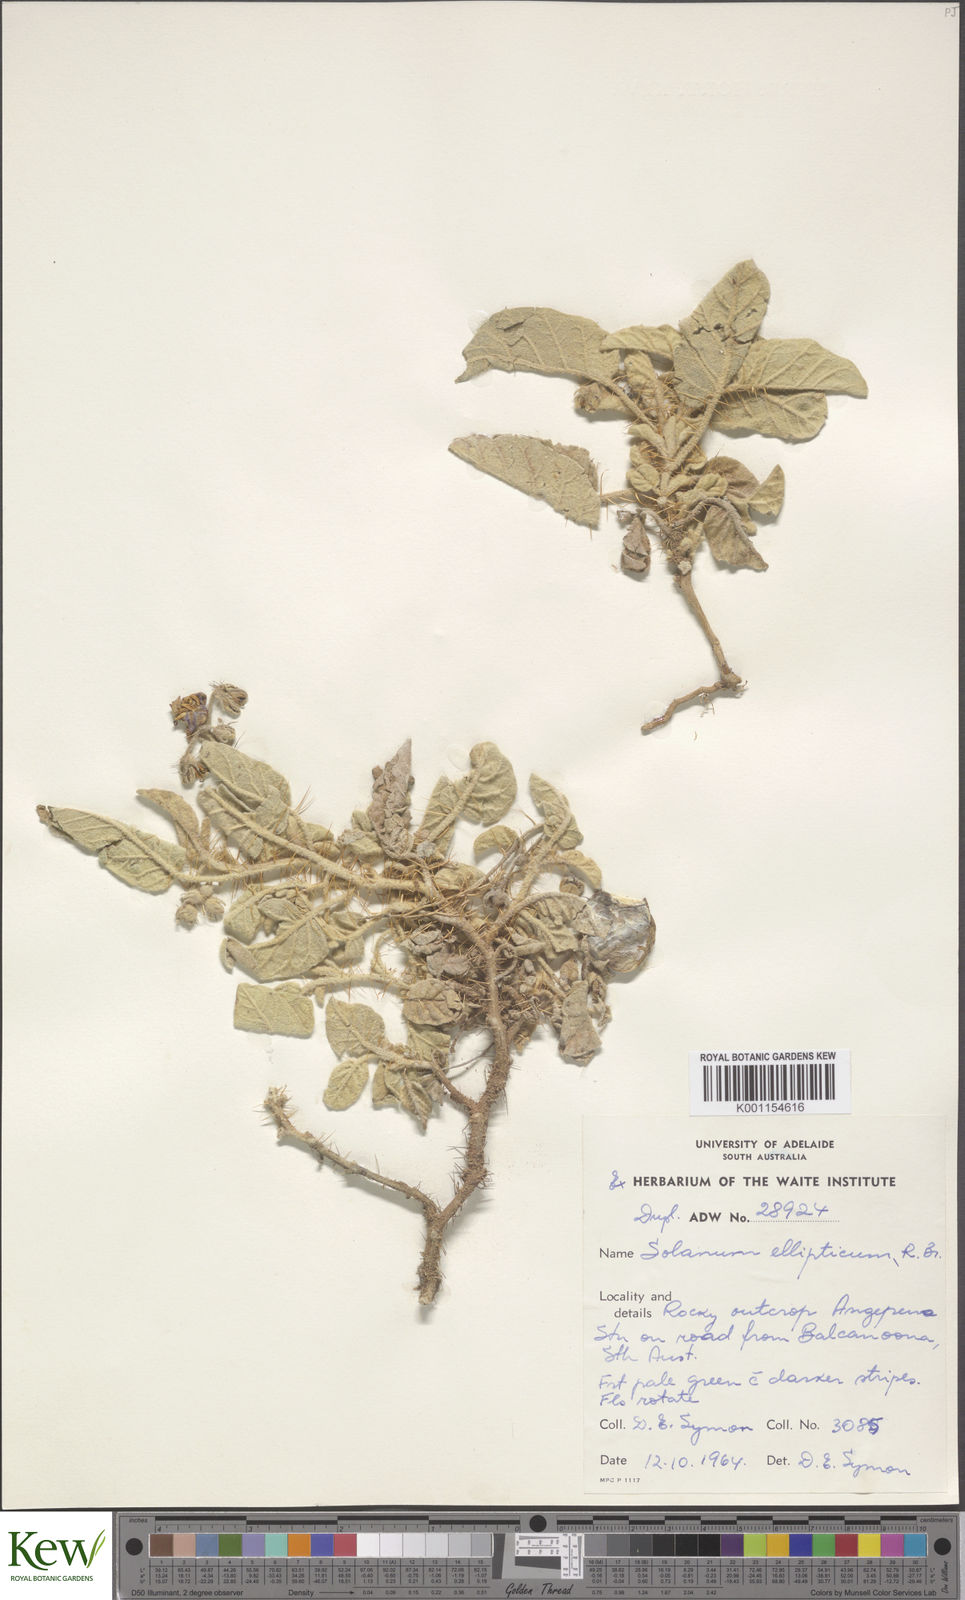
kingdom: Plantae
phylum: Tracheophyta
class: Magnoliopsida
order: Solanales
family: Solanaceae
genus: Solanum
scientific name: Solanum ellipticum
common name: Potato-bush
